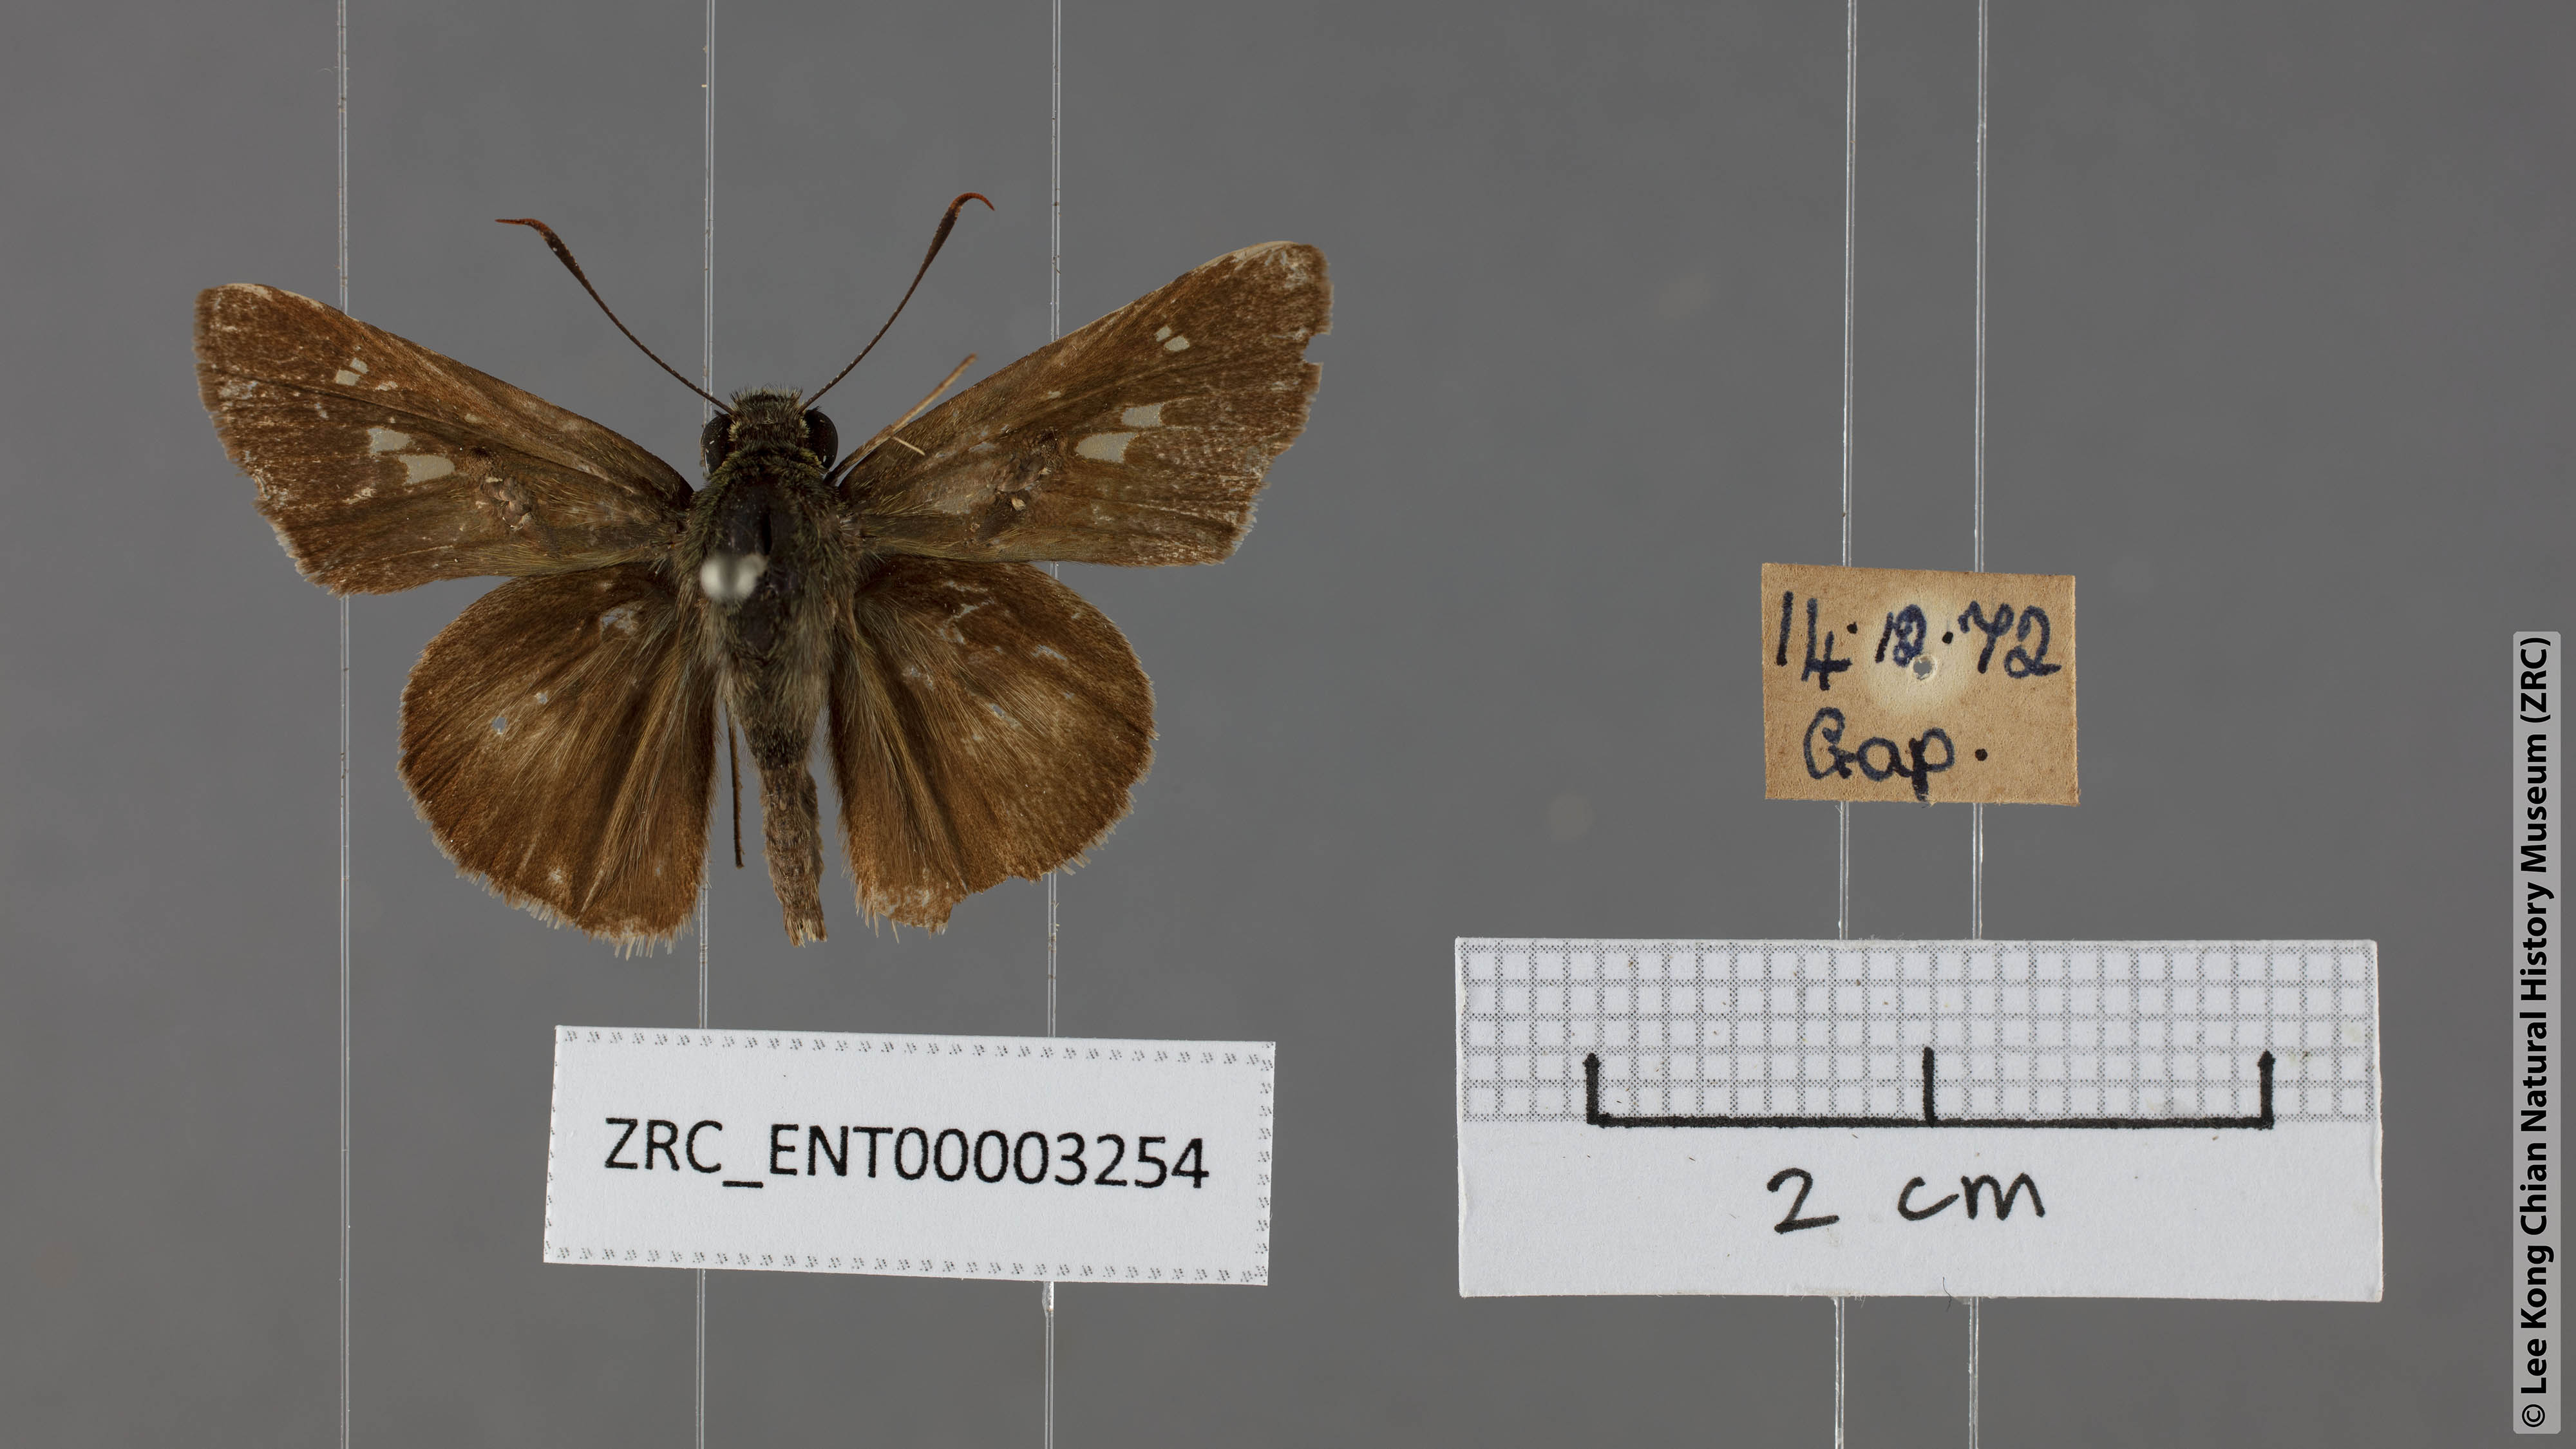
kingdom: Animalia
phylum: Arthropoda
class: Insecta
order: Lepidoptera
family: Hesperiidae
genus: Halpe
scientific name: Halpe zema
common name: Dark banded ace
